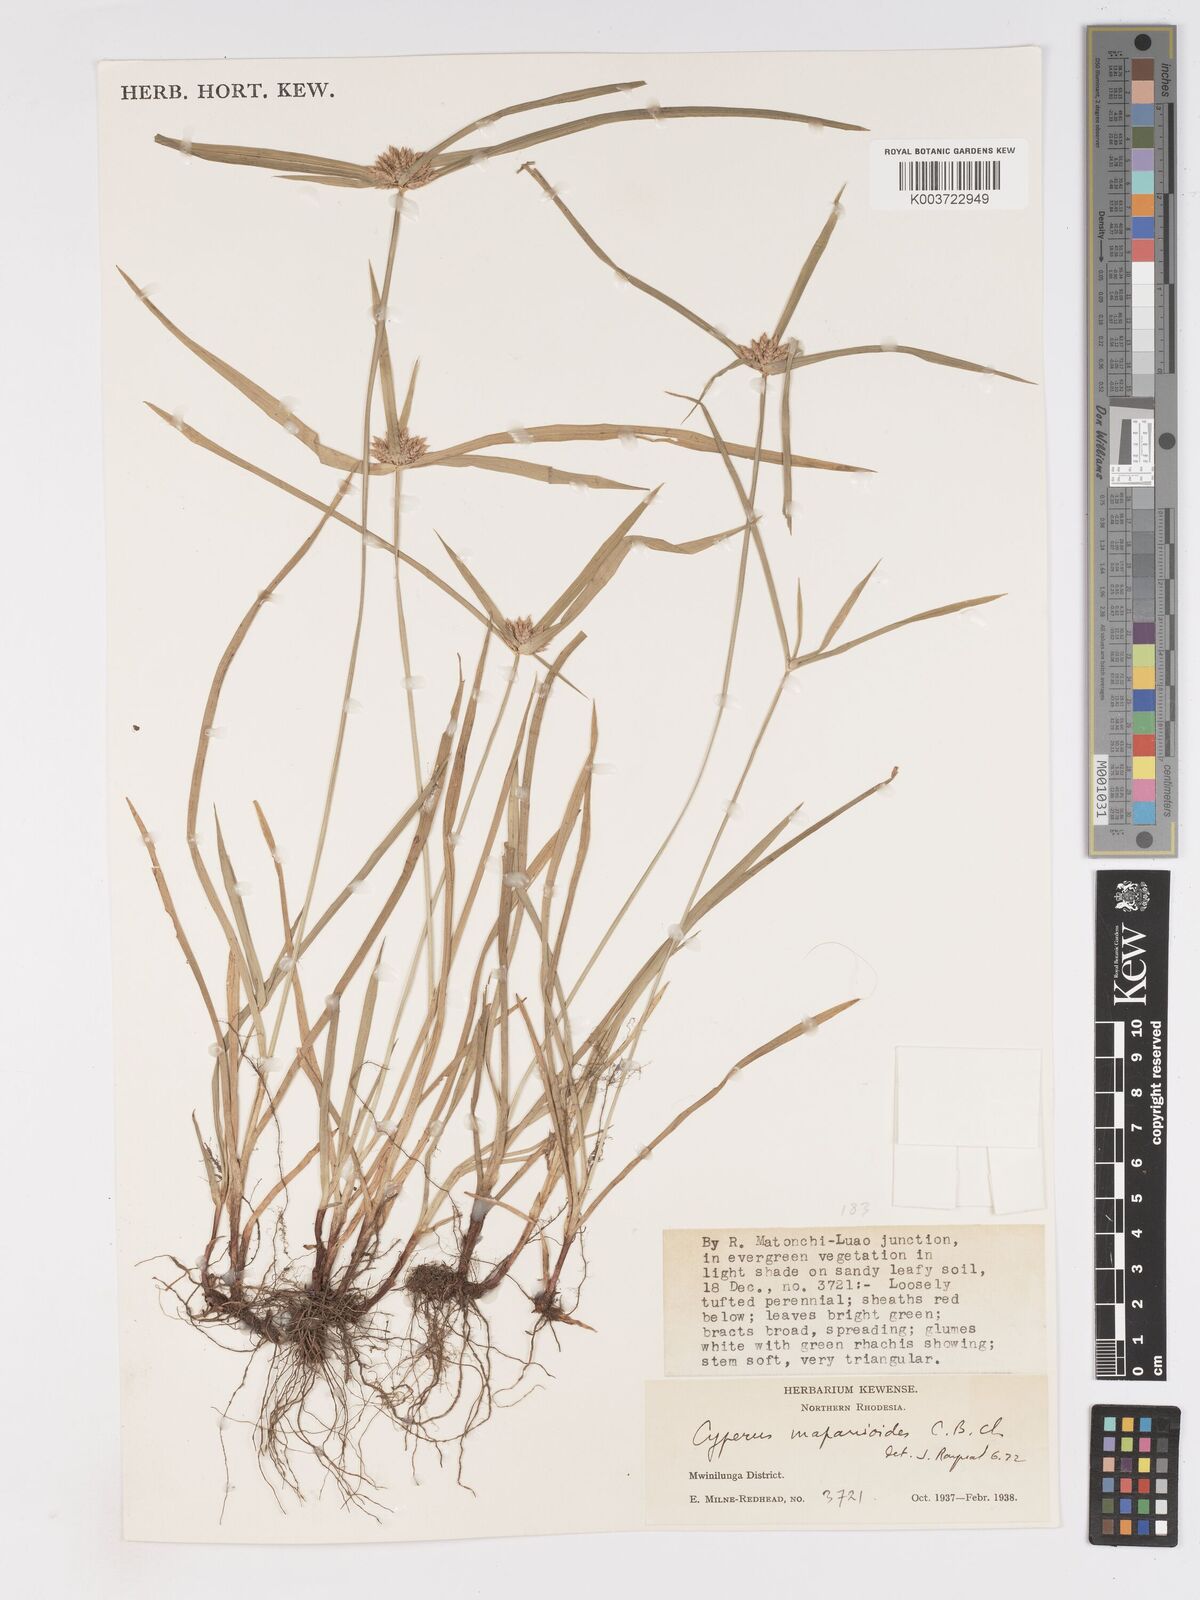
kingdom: Plantae
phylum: Tracheophyta
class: Liliopsida
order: Poales
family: Cyperaceae
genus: Cyperus
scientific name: Cyperus mapanioides
